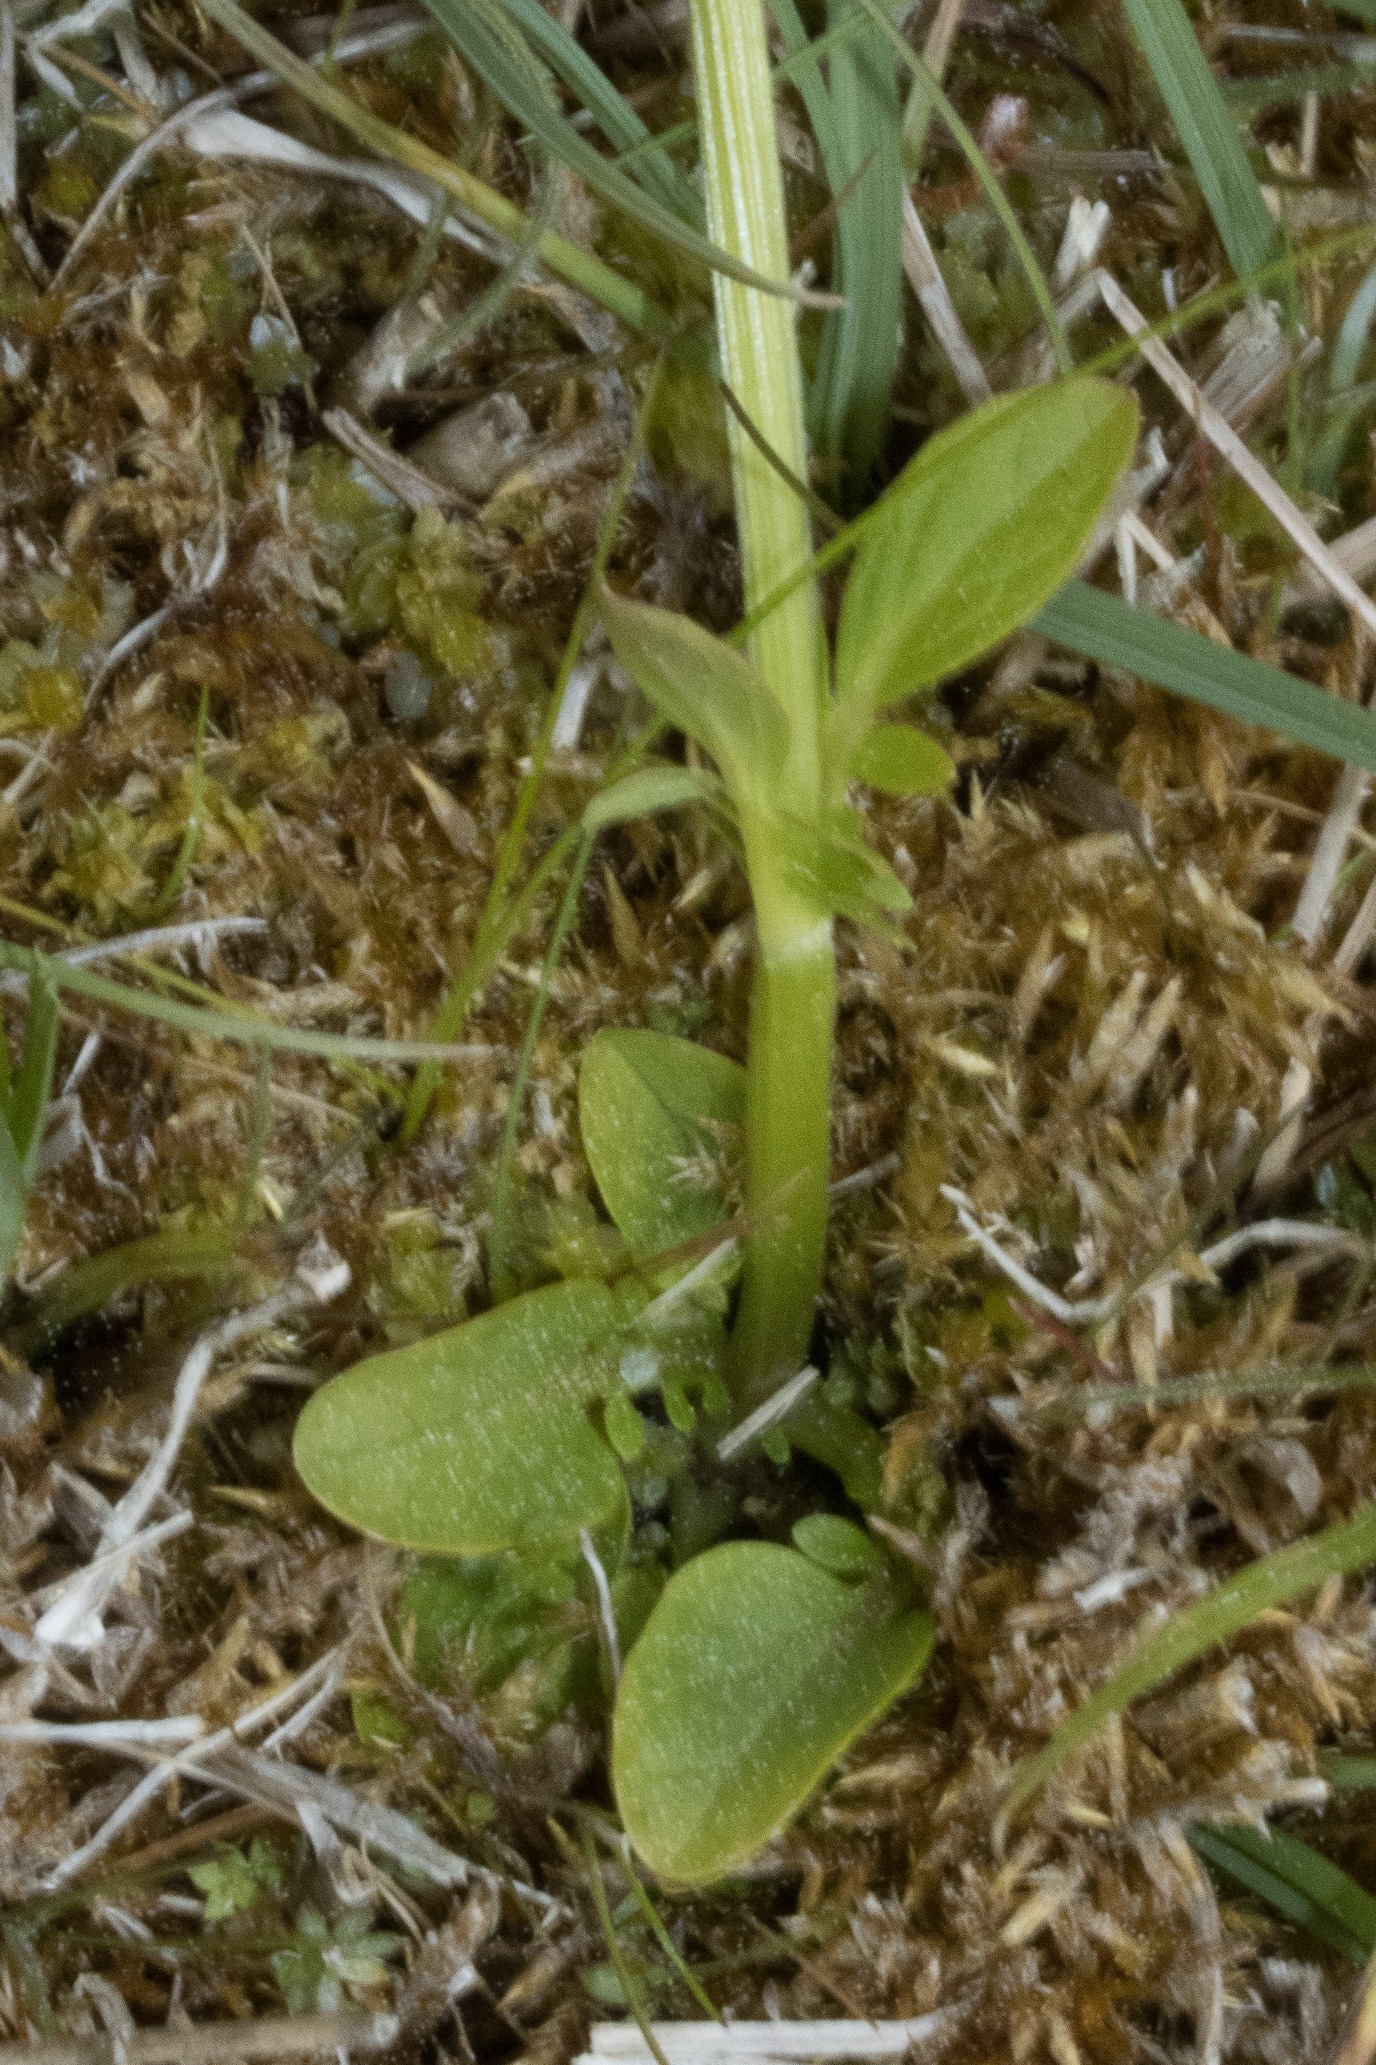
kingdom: Plantae
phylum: Tracheophyta
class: Magnoliopsida
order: Dipsacales
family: Caprifoliaceae
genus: Valeriana
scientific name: Valeriana dioica
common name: Tvebo baldrian
